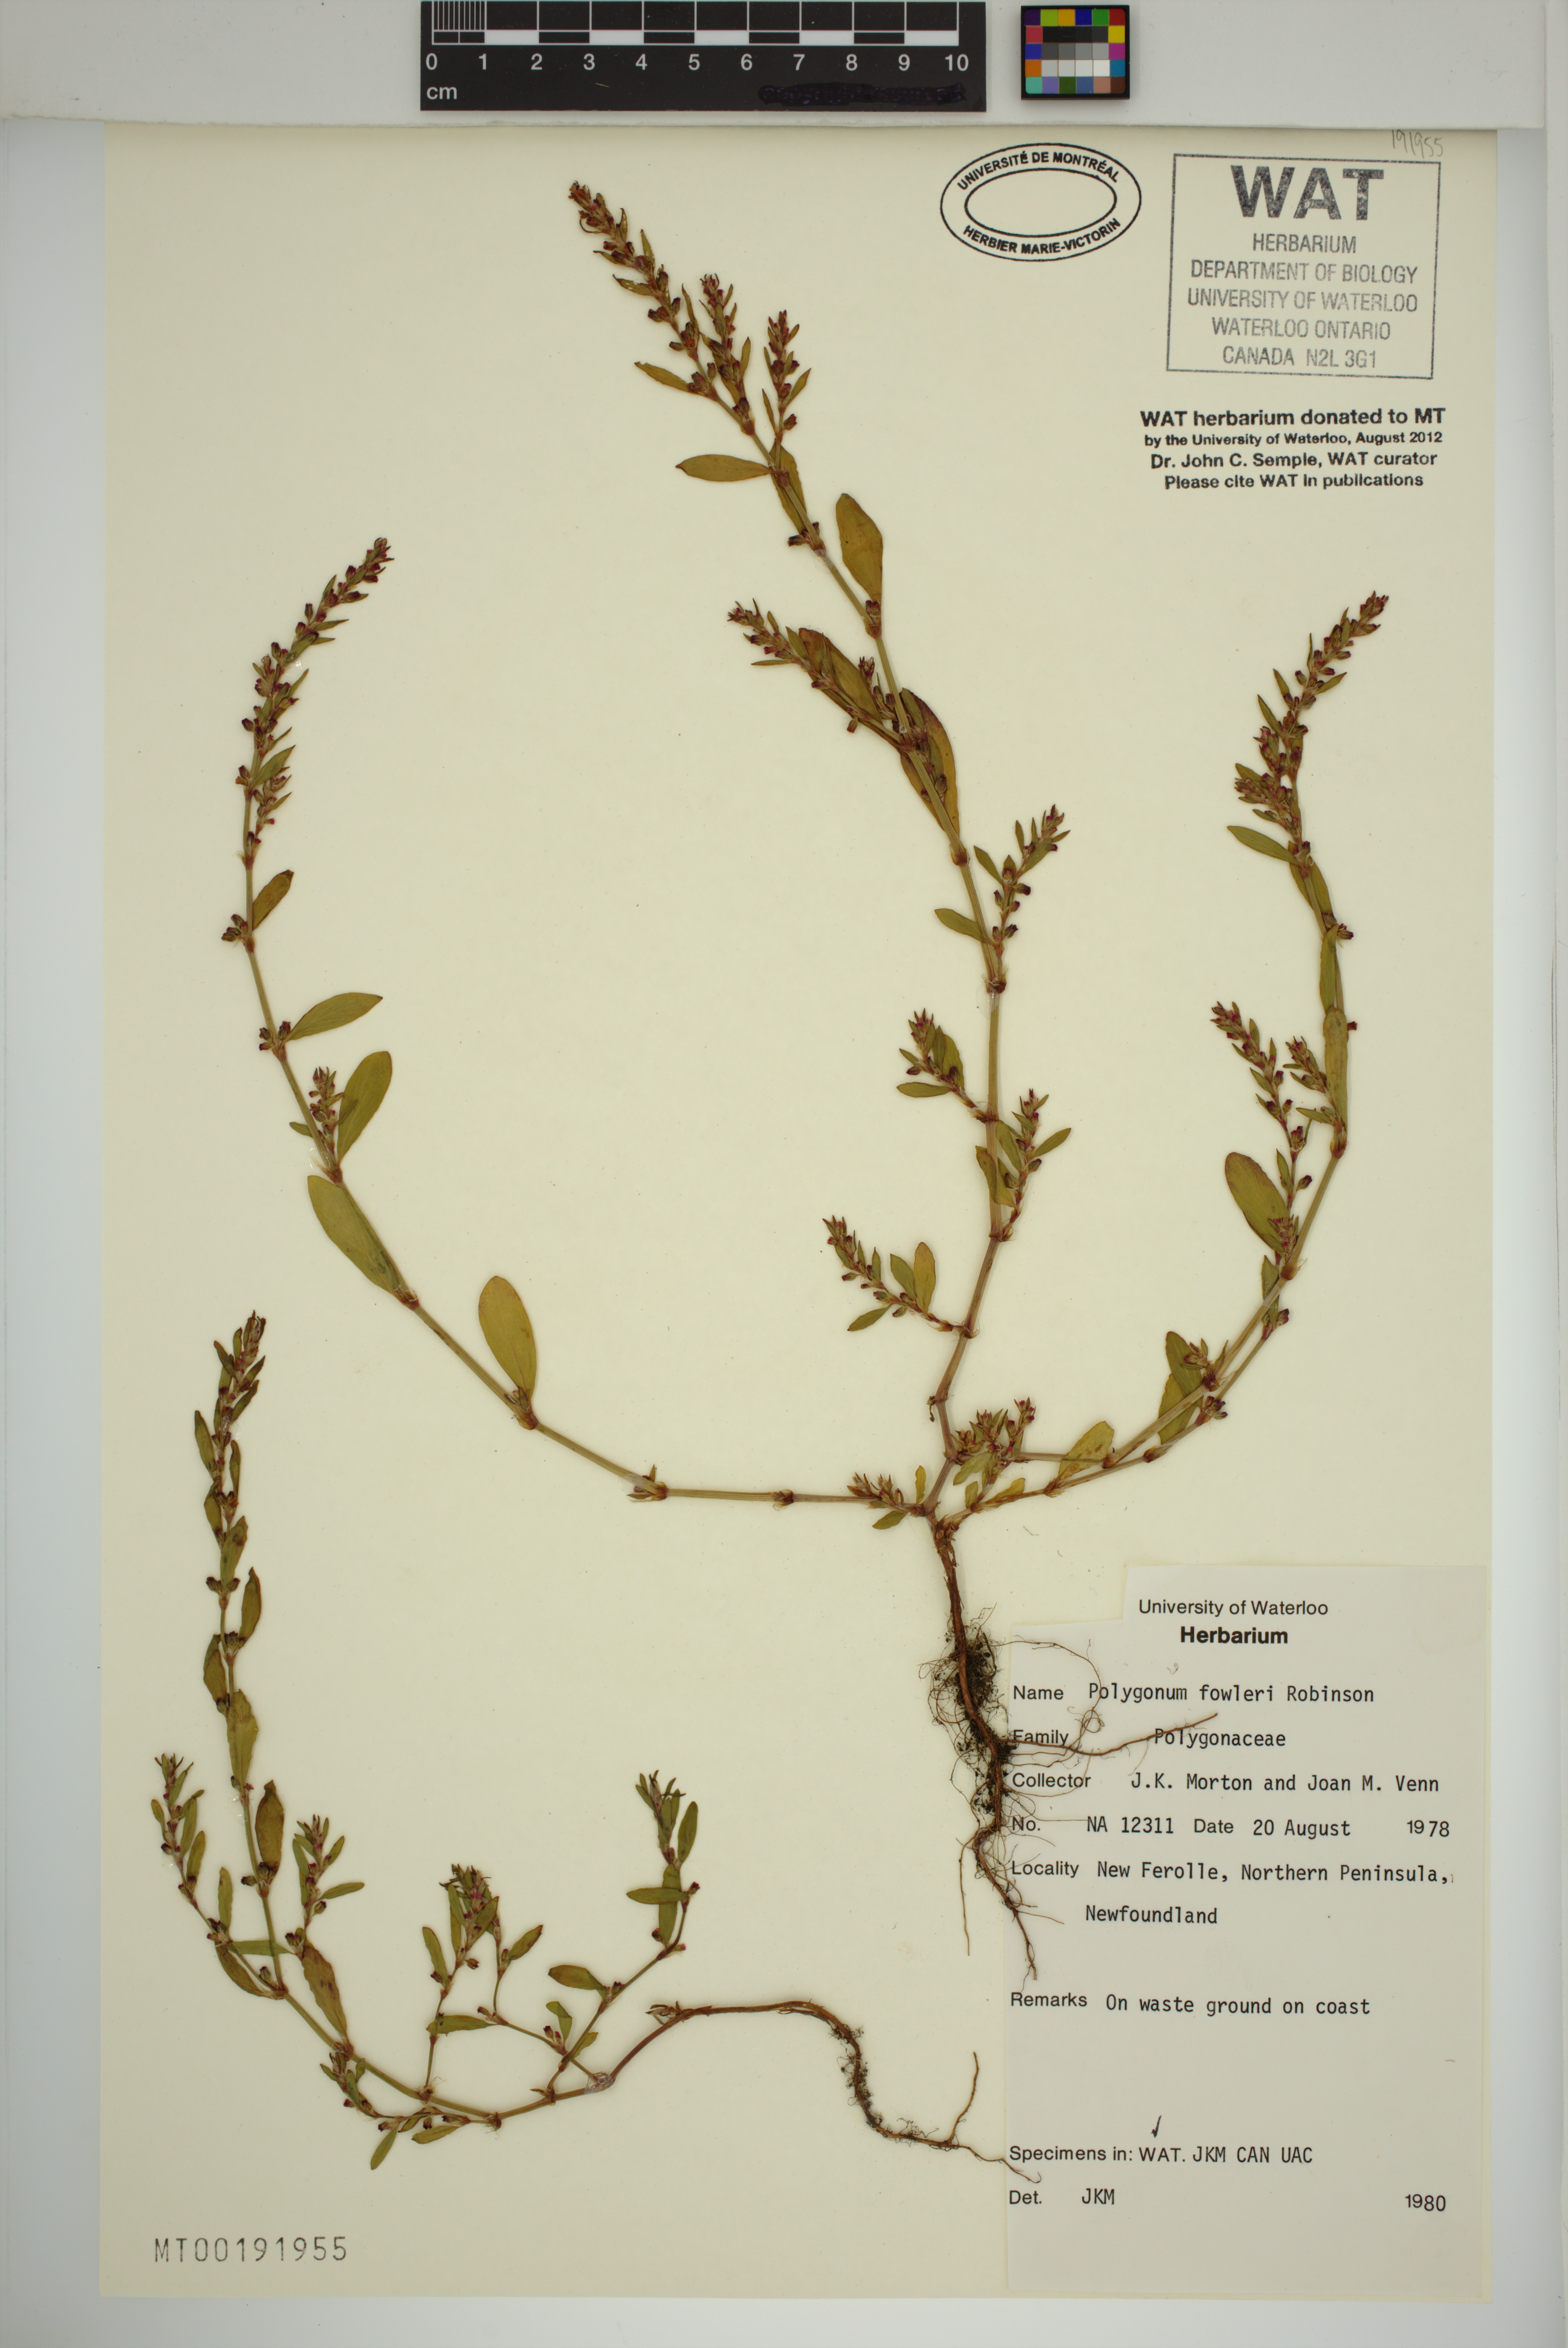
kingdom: Plantae
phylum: Tracheophyta
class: Magnoliopsida
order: Caryophyllales
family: Polygonaceae
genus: Polygonum
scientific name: Polygonum fowleri
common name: Fowler's knotweed
